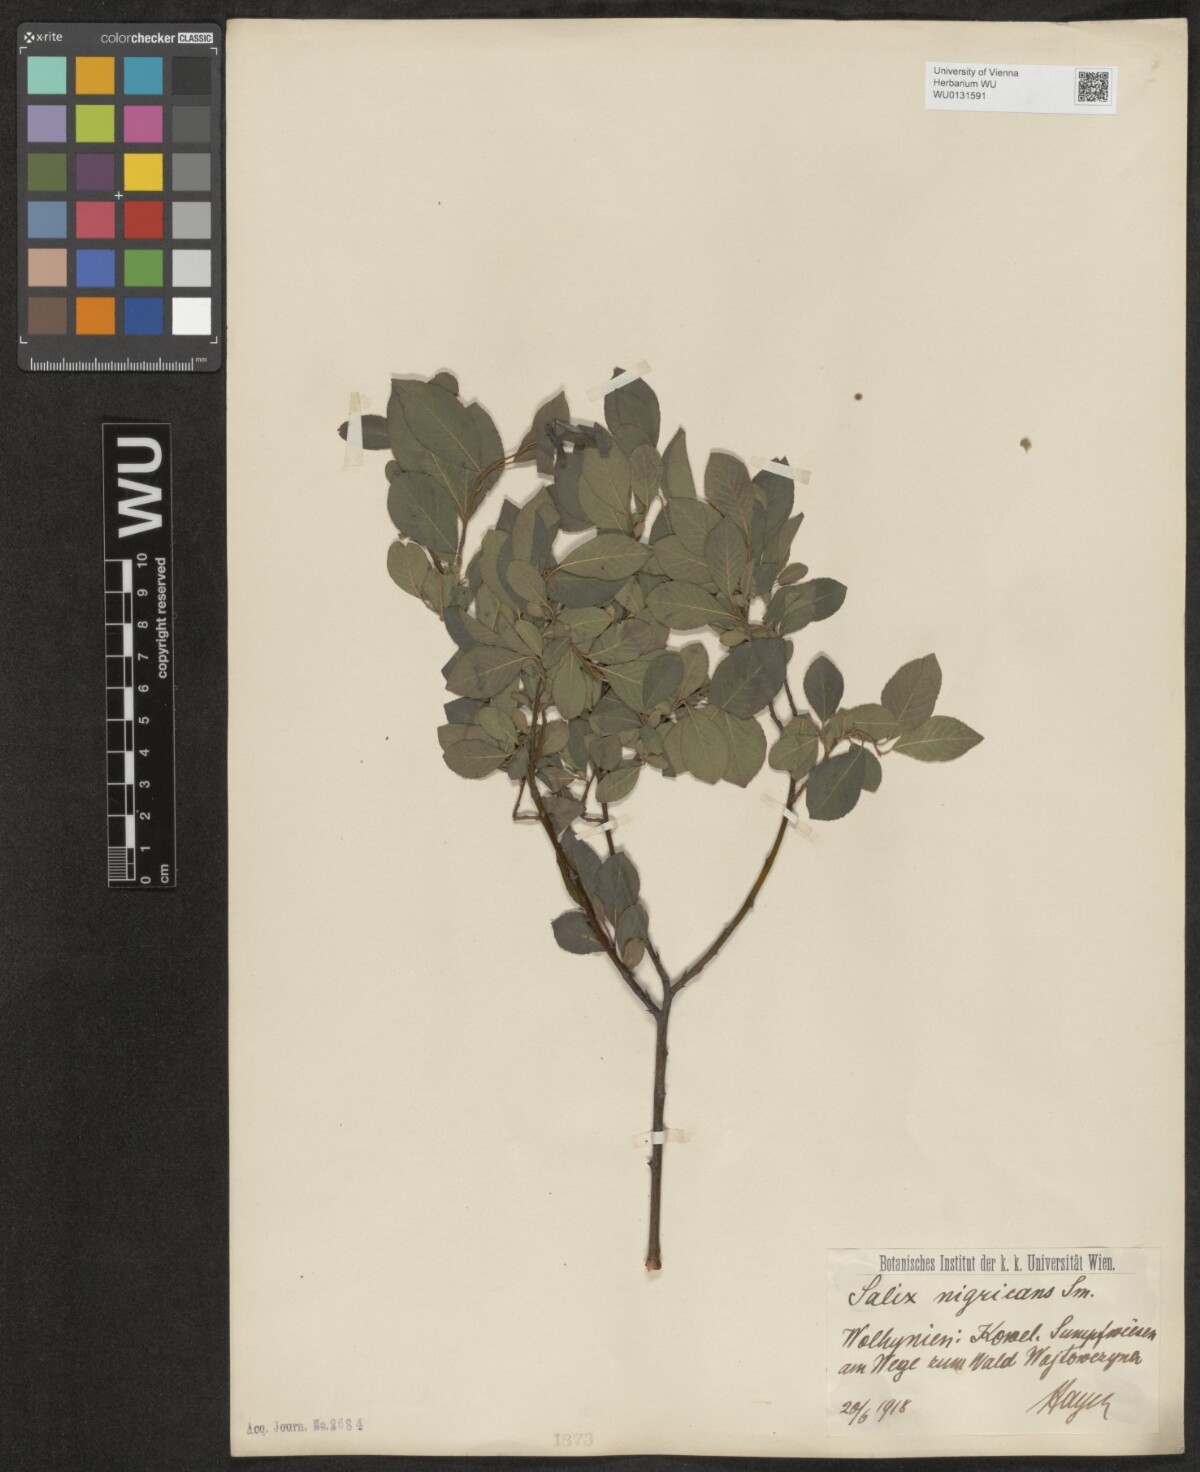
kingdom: Plantae
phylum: Tracheophyta
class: Magnoliopsida
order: Malpighiales
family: Salicaceae
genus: Salix
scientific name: Salix myrsinifolia
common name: Dark-leaved willow
